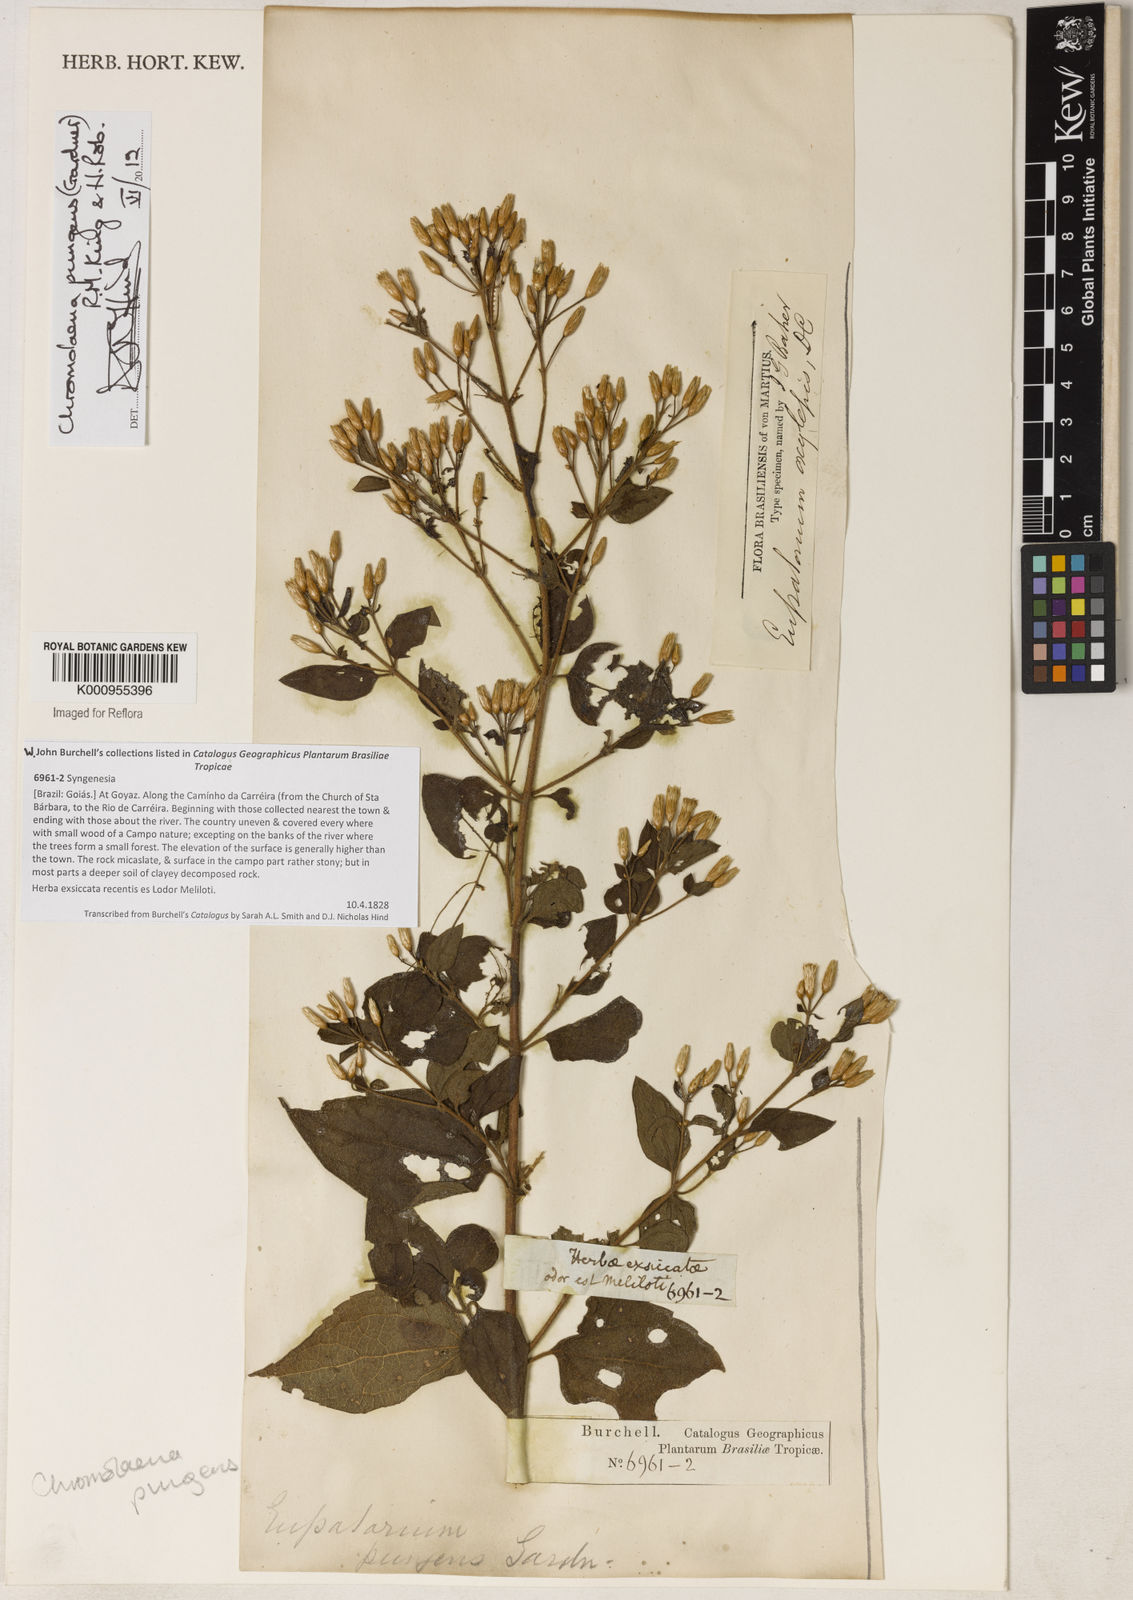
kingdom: Plantae
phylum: Tracheophyta
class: Magnoliopsida
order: Asterales
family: Asteraceae
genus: Chromolaena
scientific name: Chromolaena pungens
